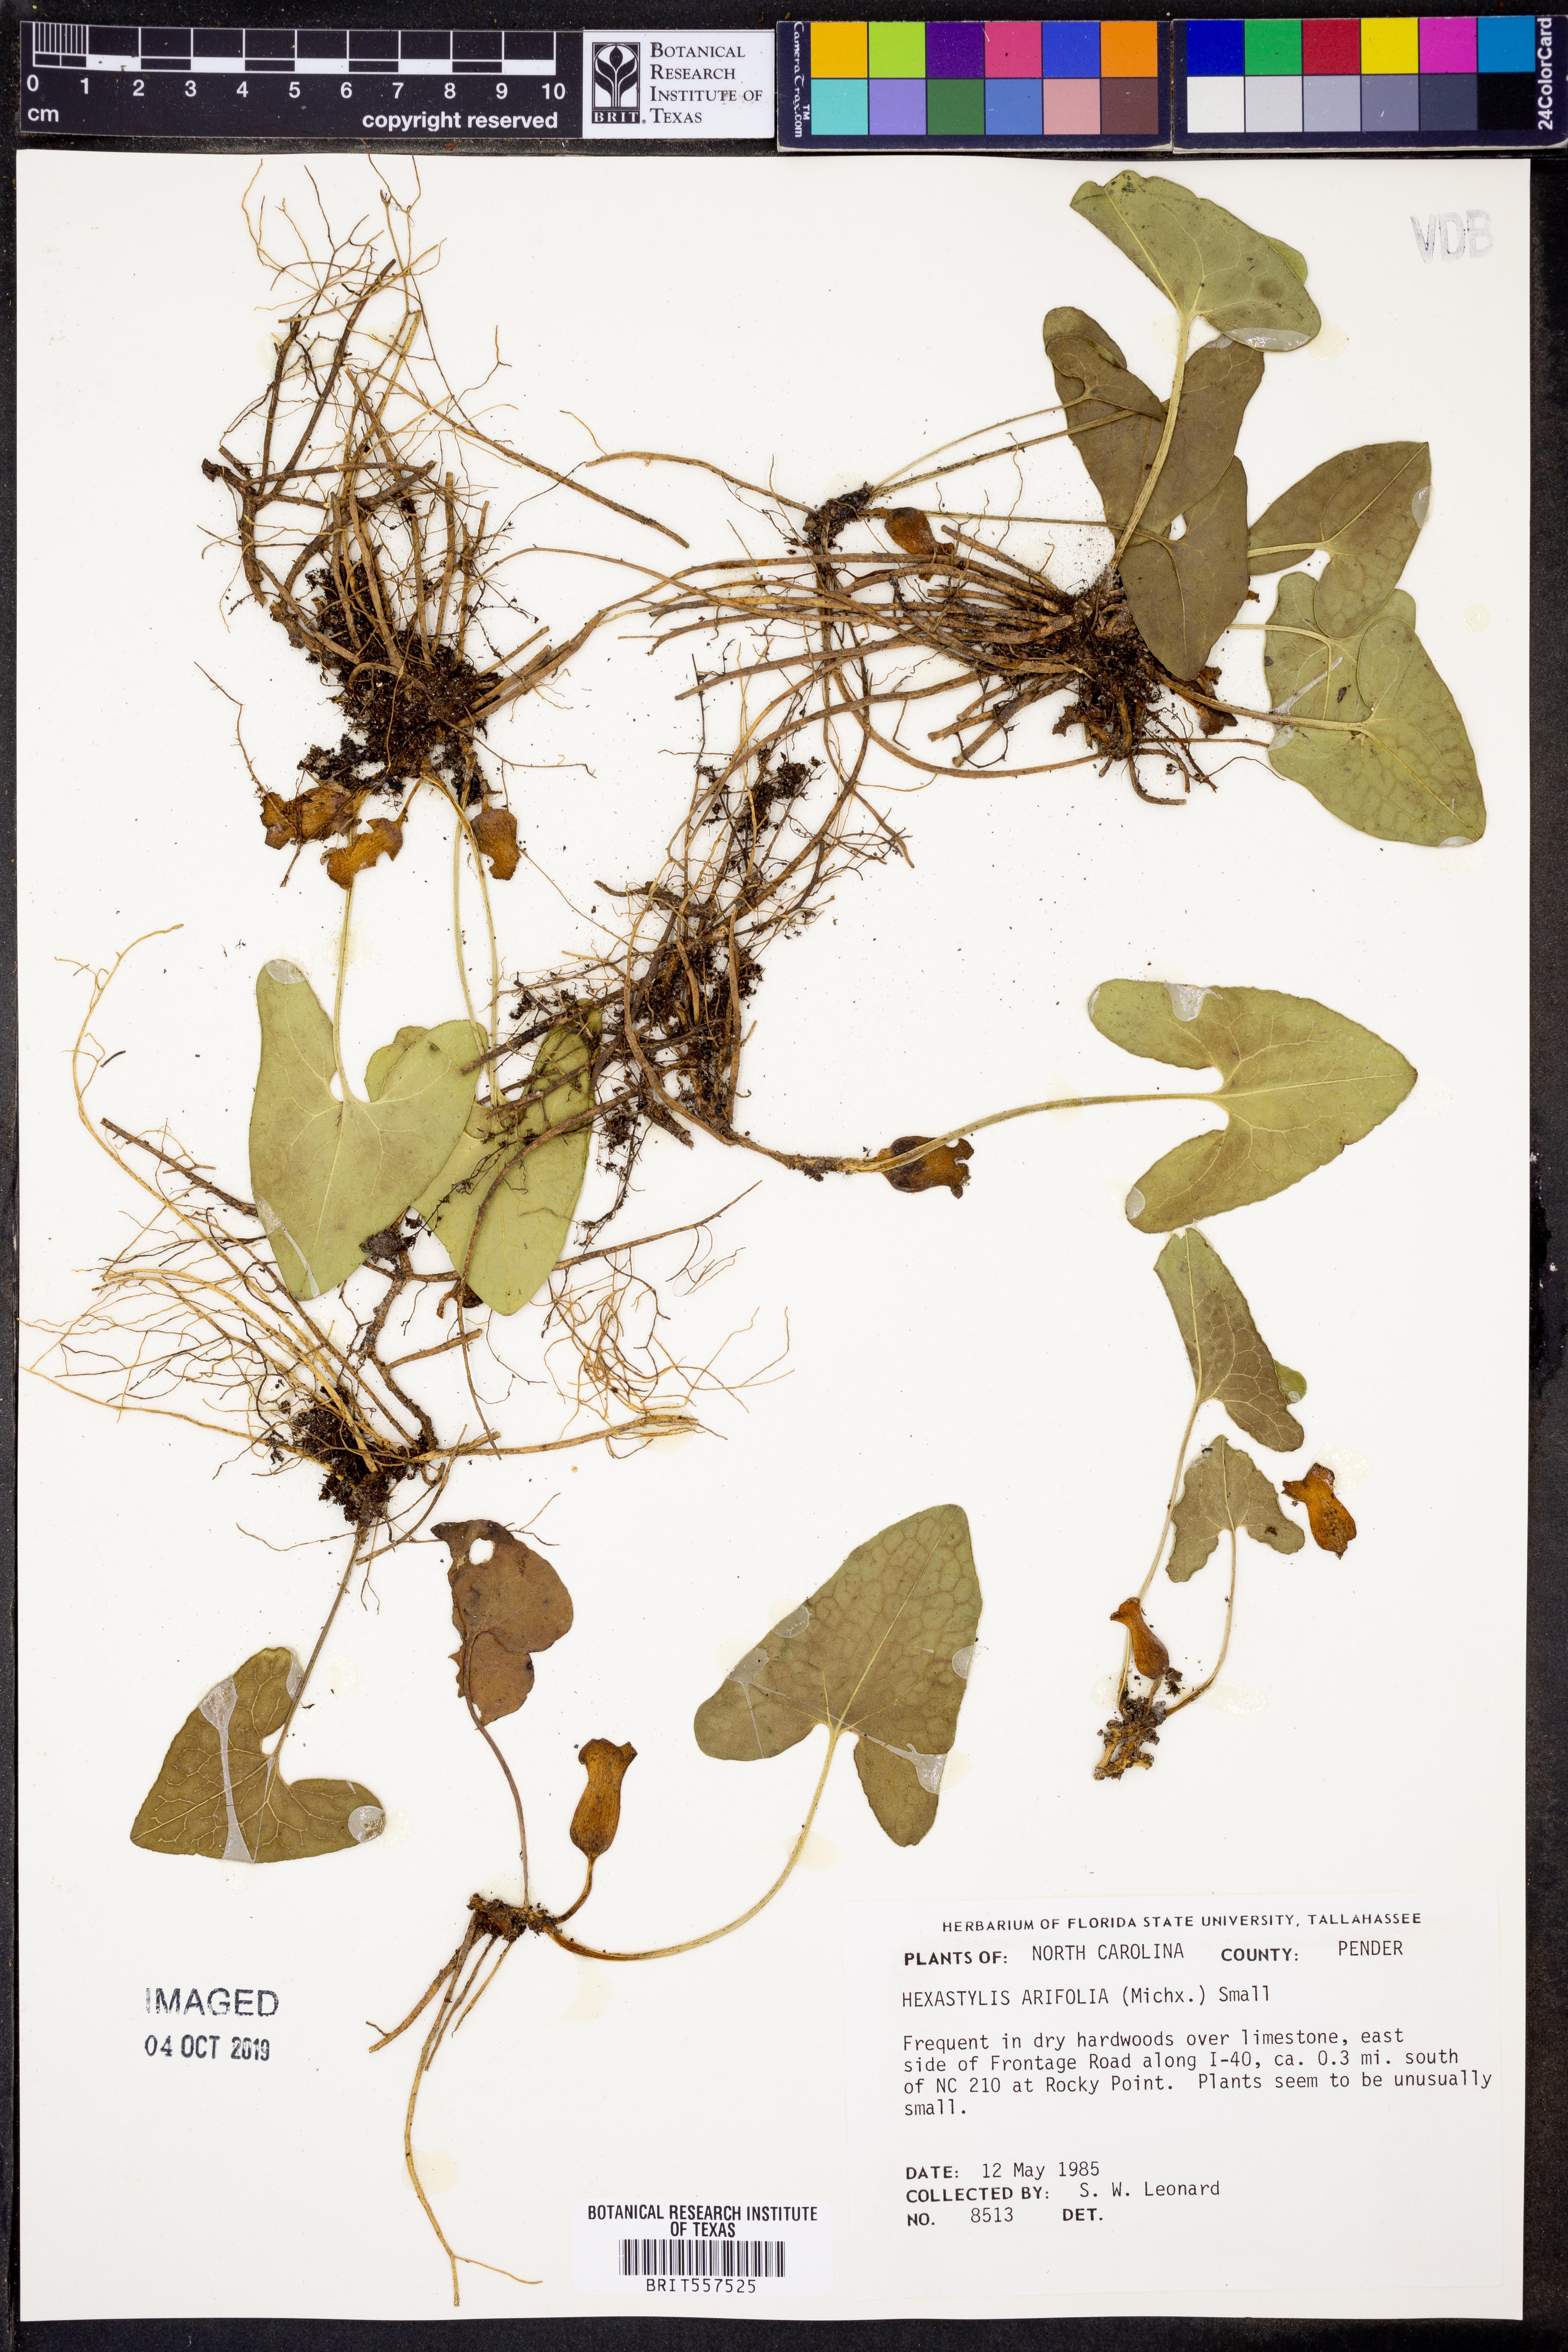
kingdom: Plantae
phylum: Tracheophyta
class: Magnoliopsida
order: Piperales
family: Aristolochiaceae
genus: Hexastylis
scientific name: Hexastylis arifolia
